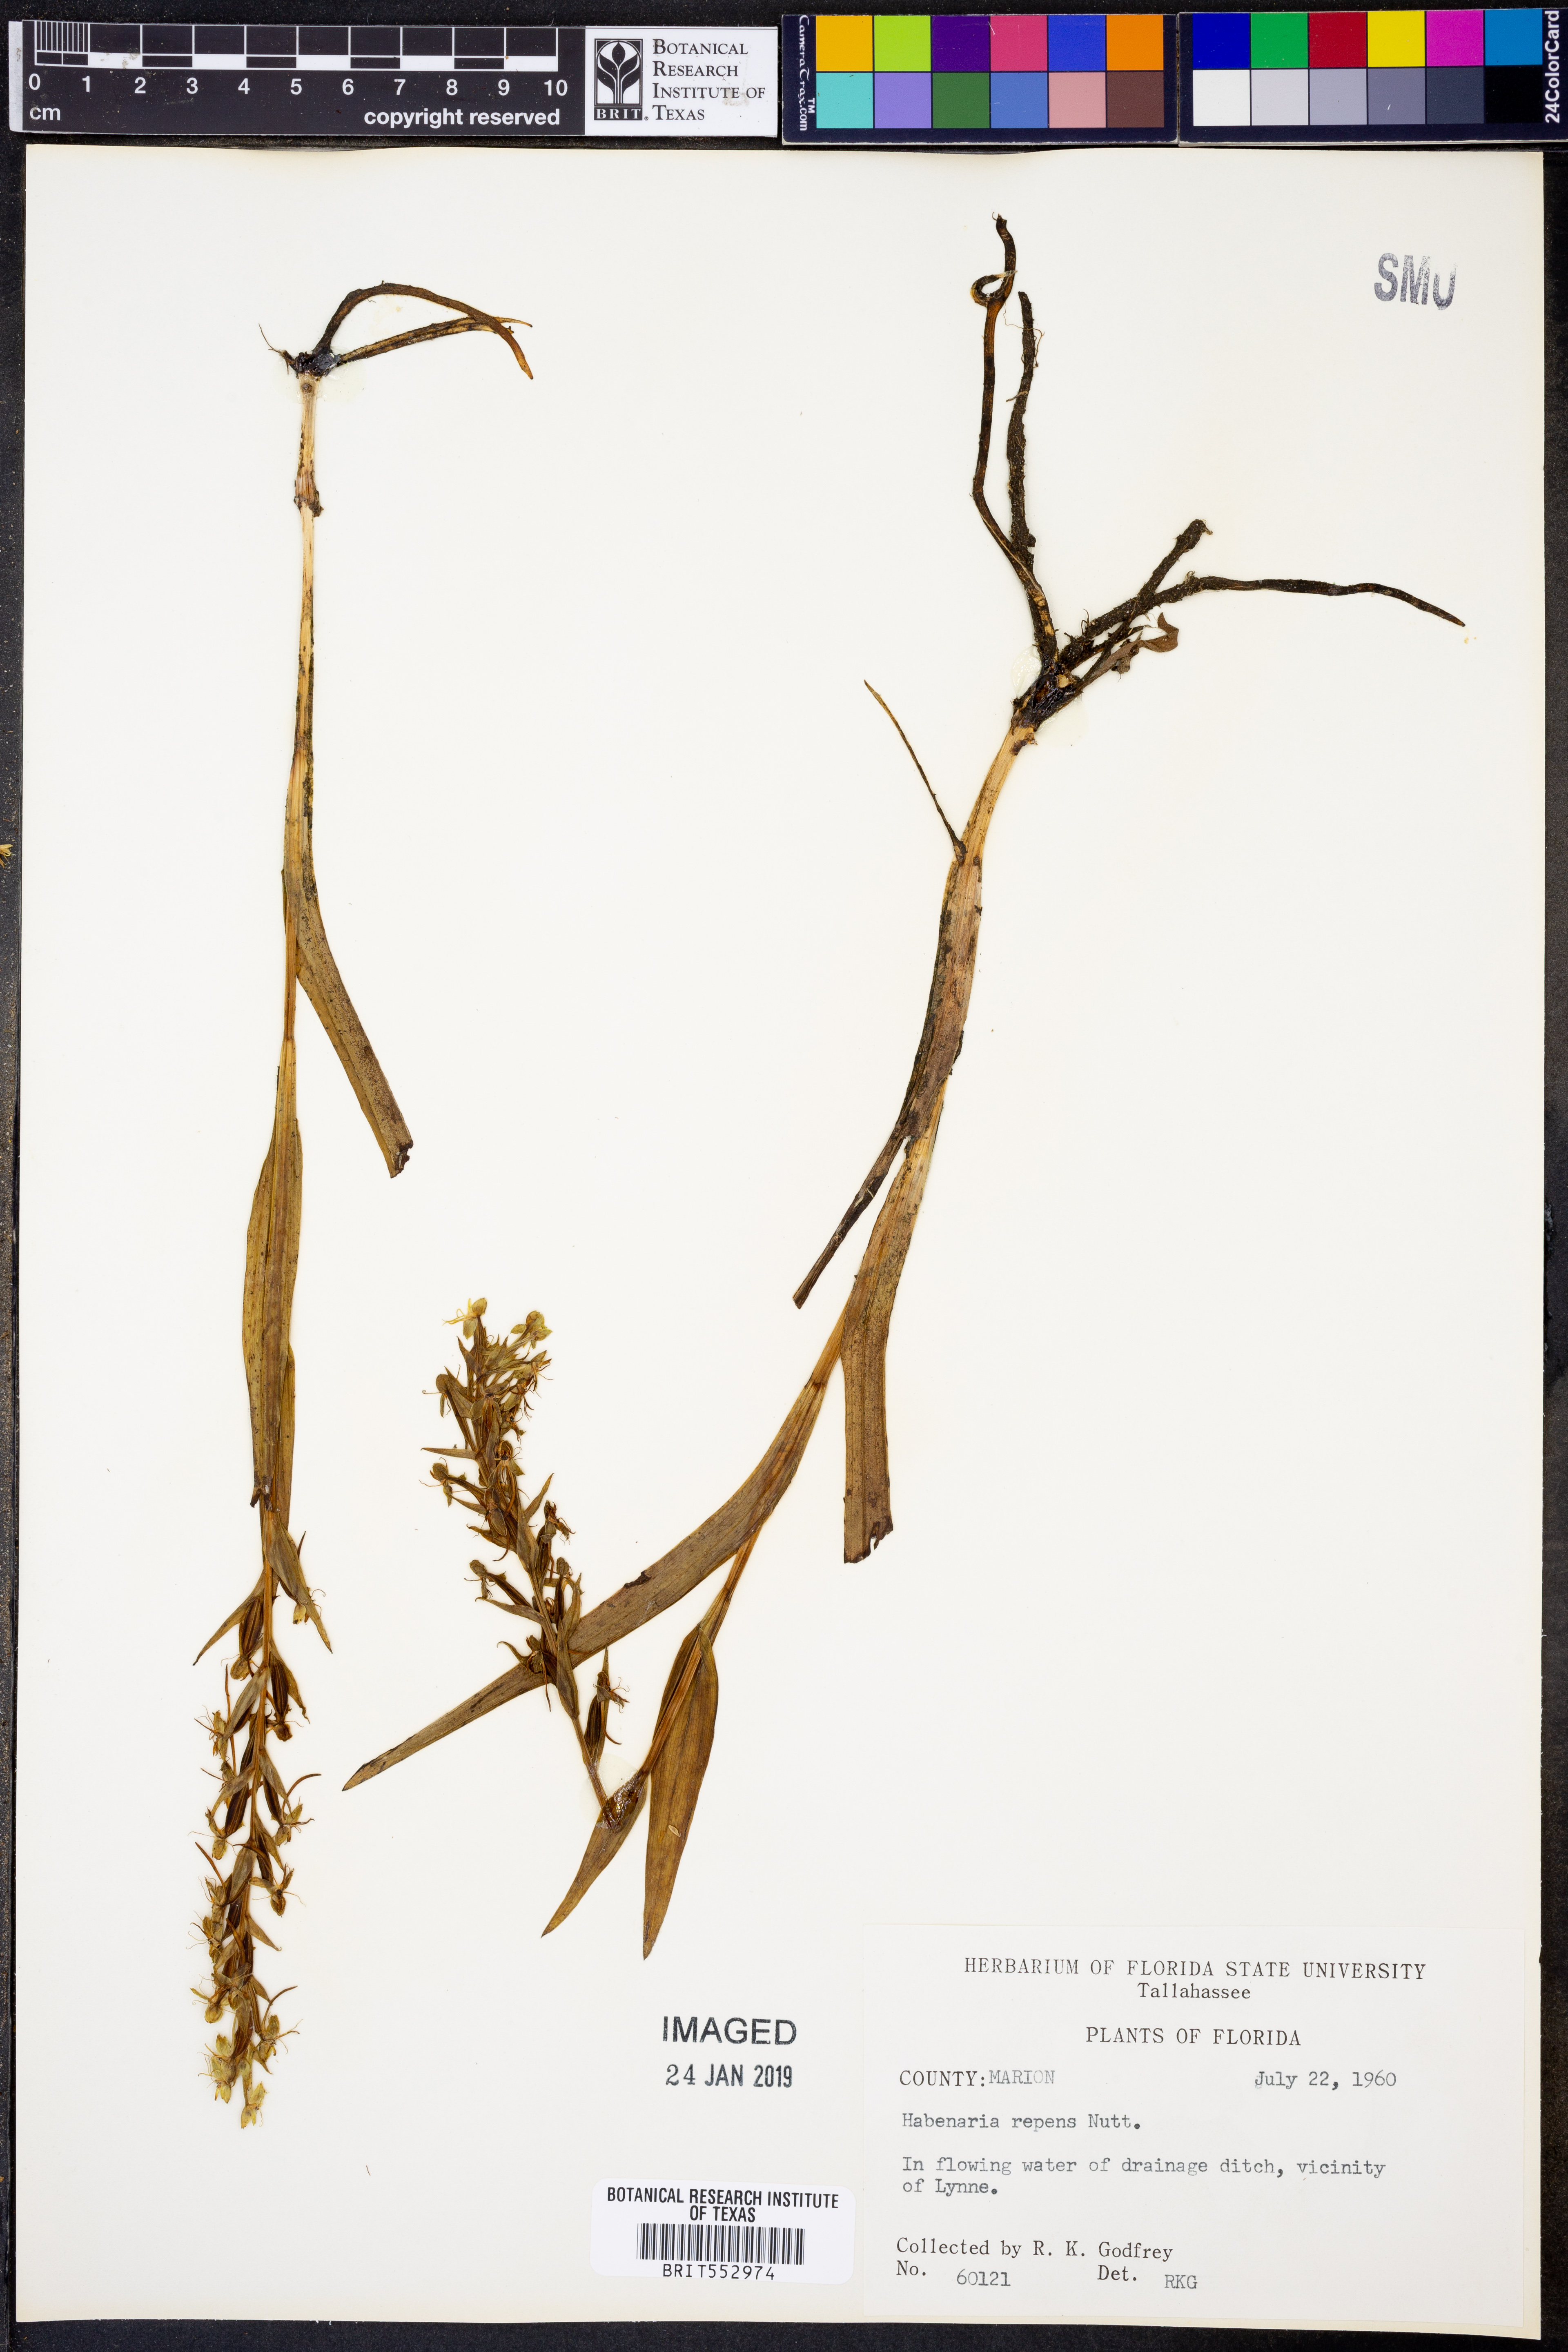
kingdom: Plantae
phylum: Tracheophyta
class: Liliopsida
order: Asparagales
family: Orchidaceae
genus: Habenaria
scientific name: Habenaria repens
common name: Water orchid
